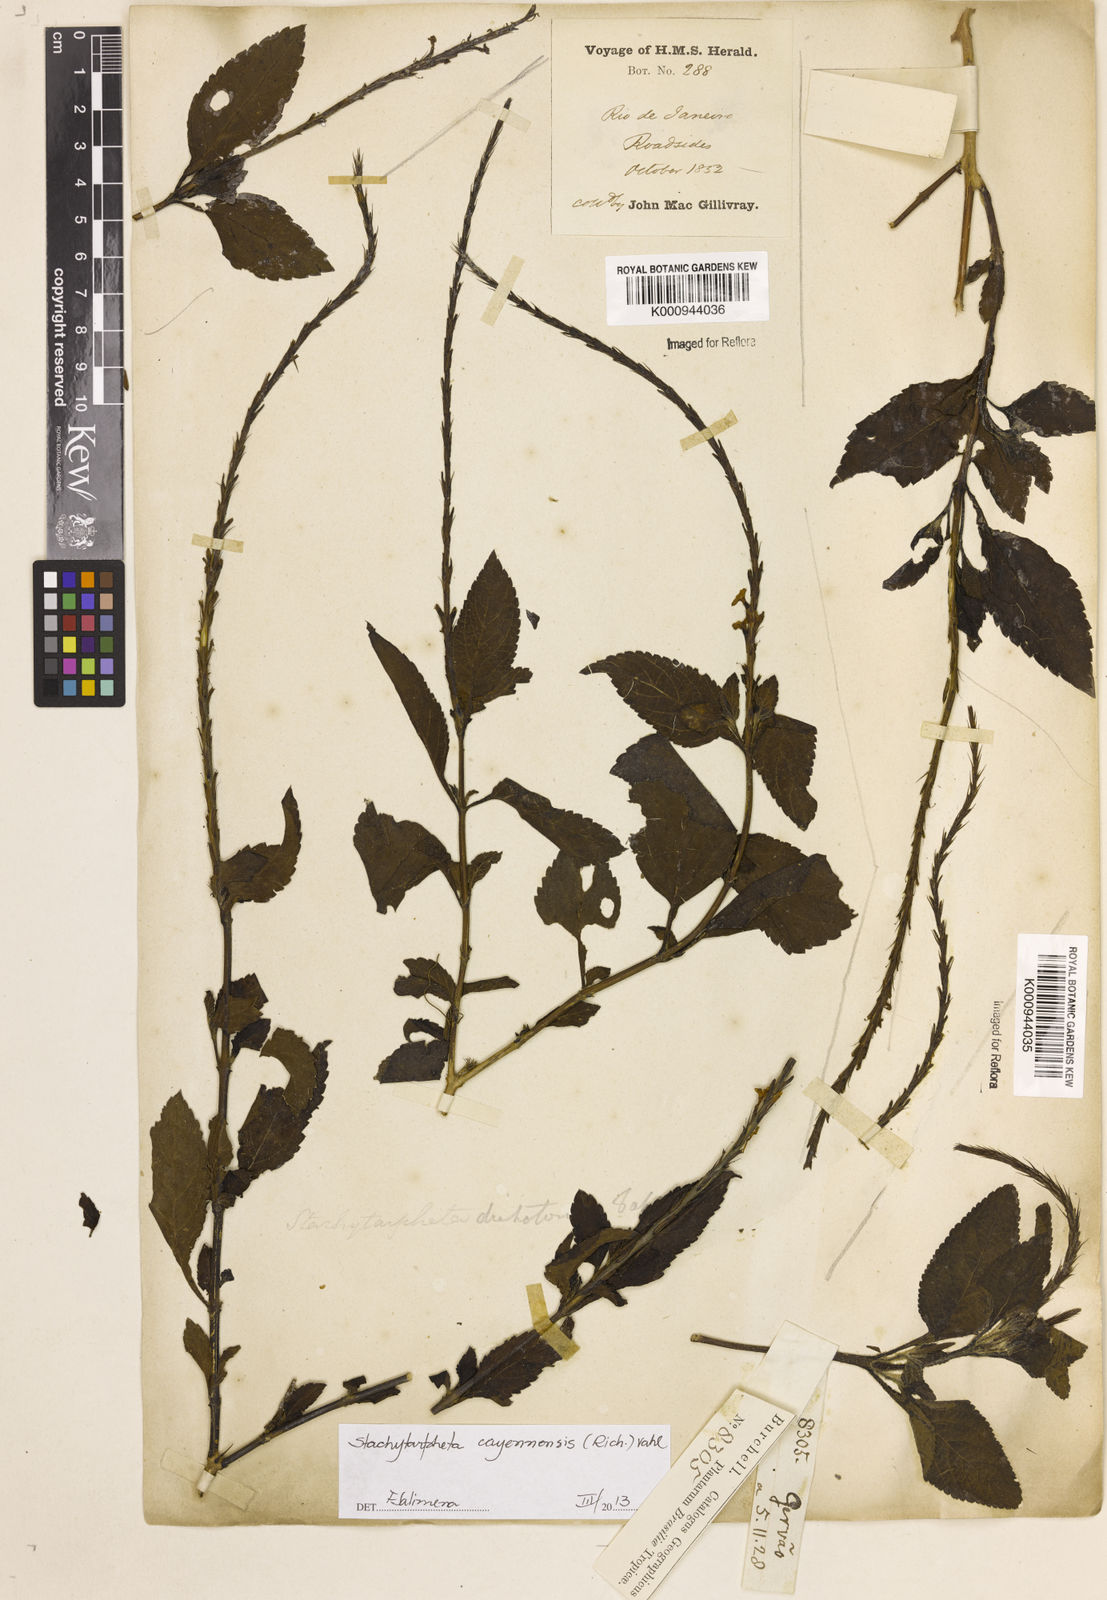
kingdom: Plantae
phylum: Tracheophyta
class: Magnoliopsida
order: Lamiales
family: Verbenaceae
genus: Aloysia
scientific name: Aloysia
